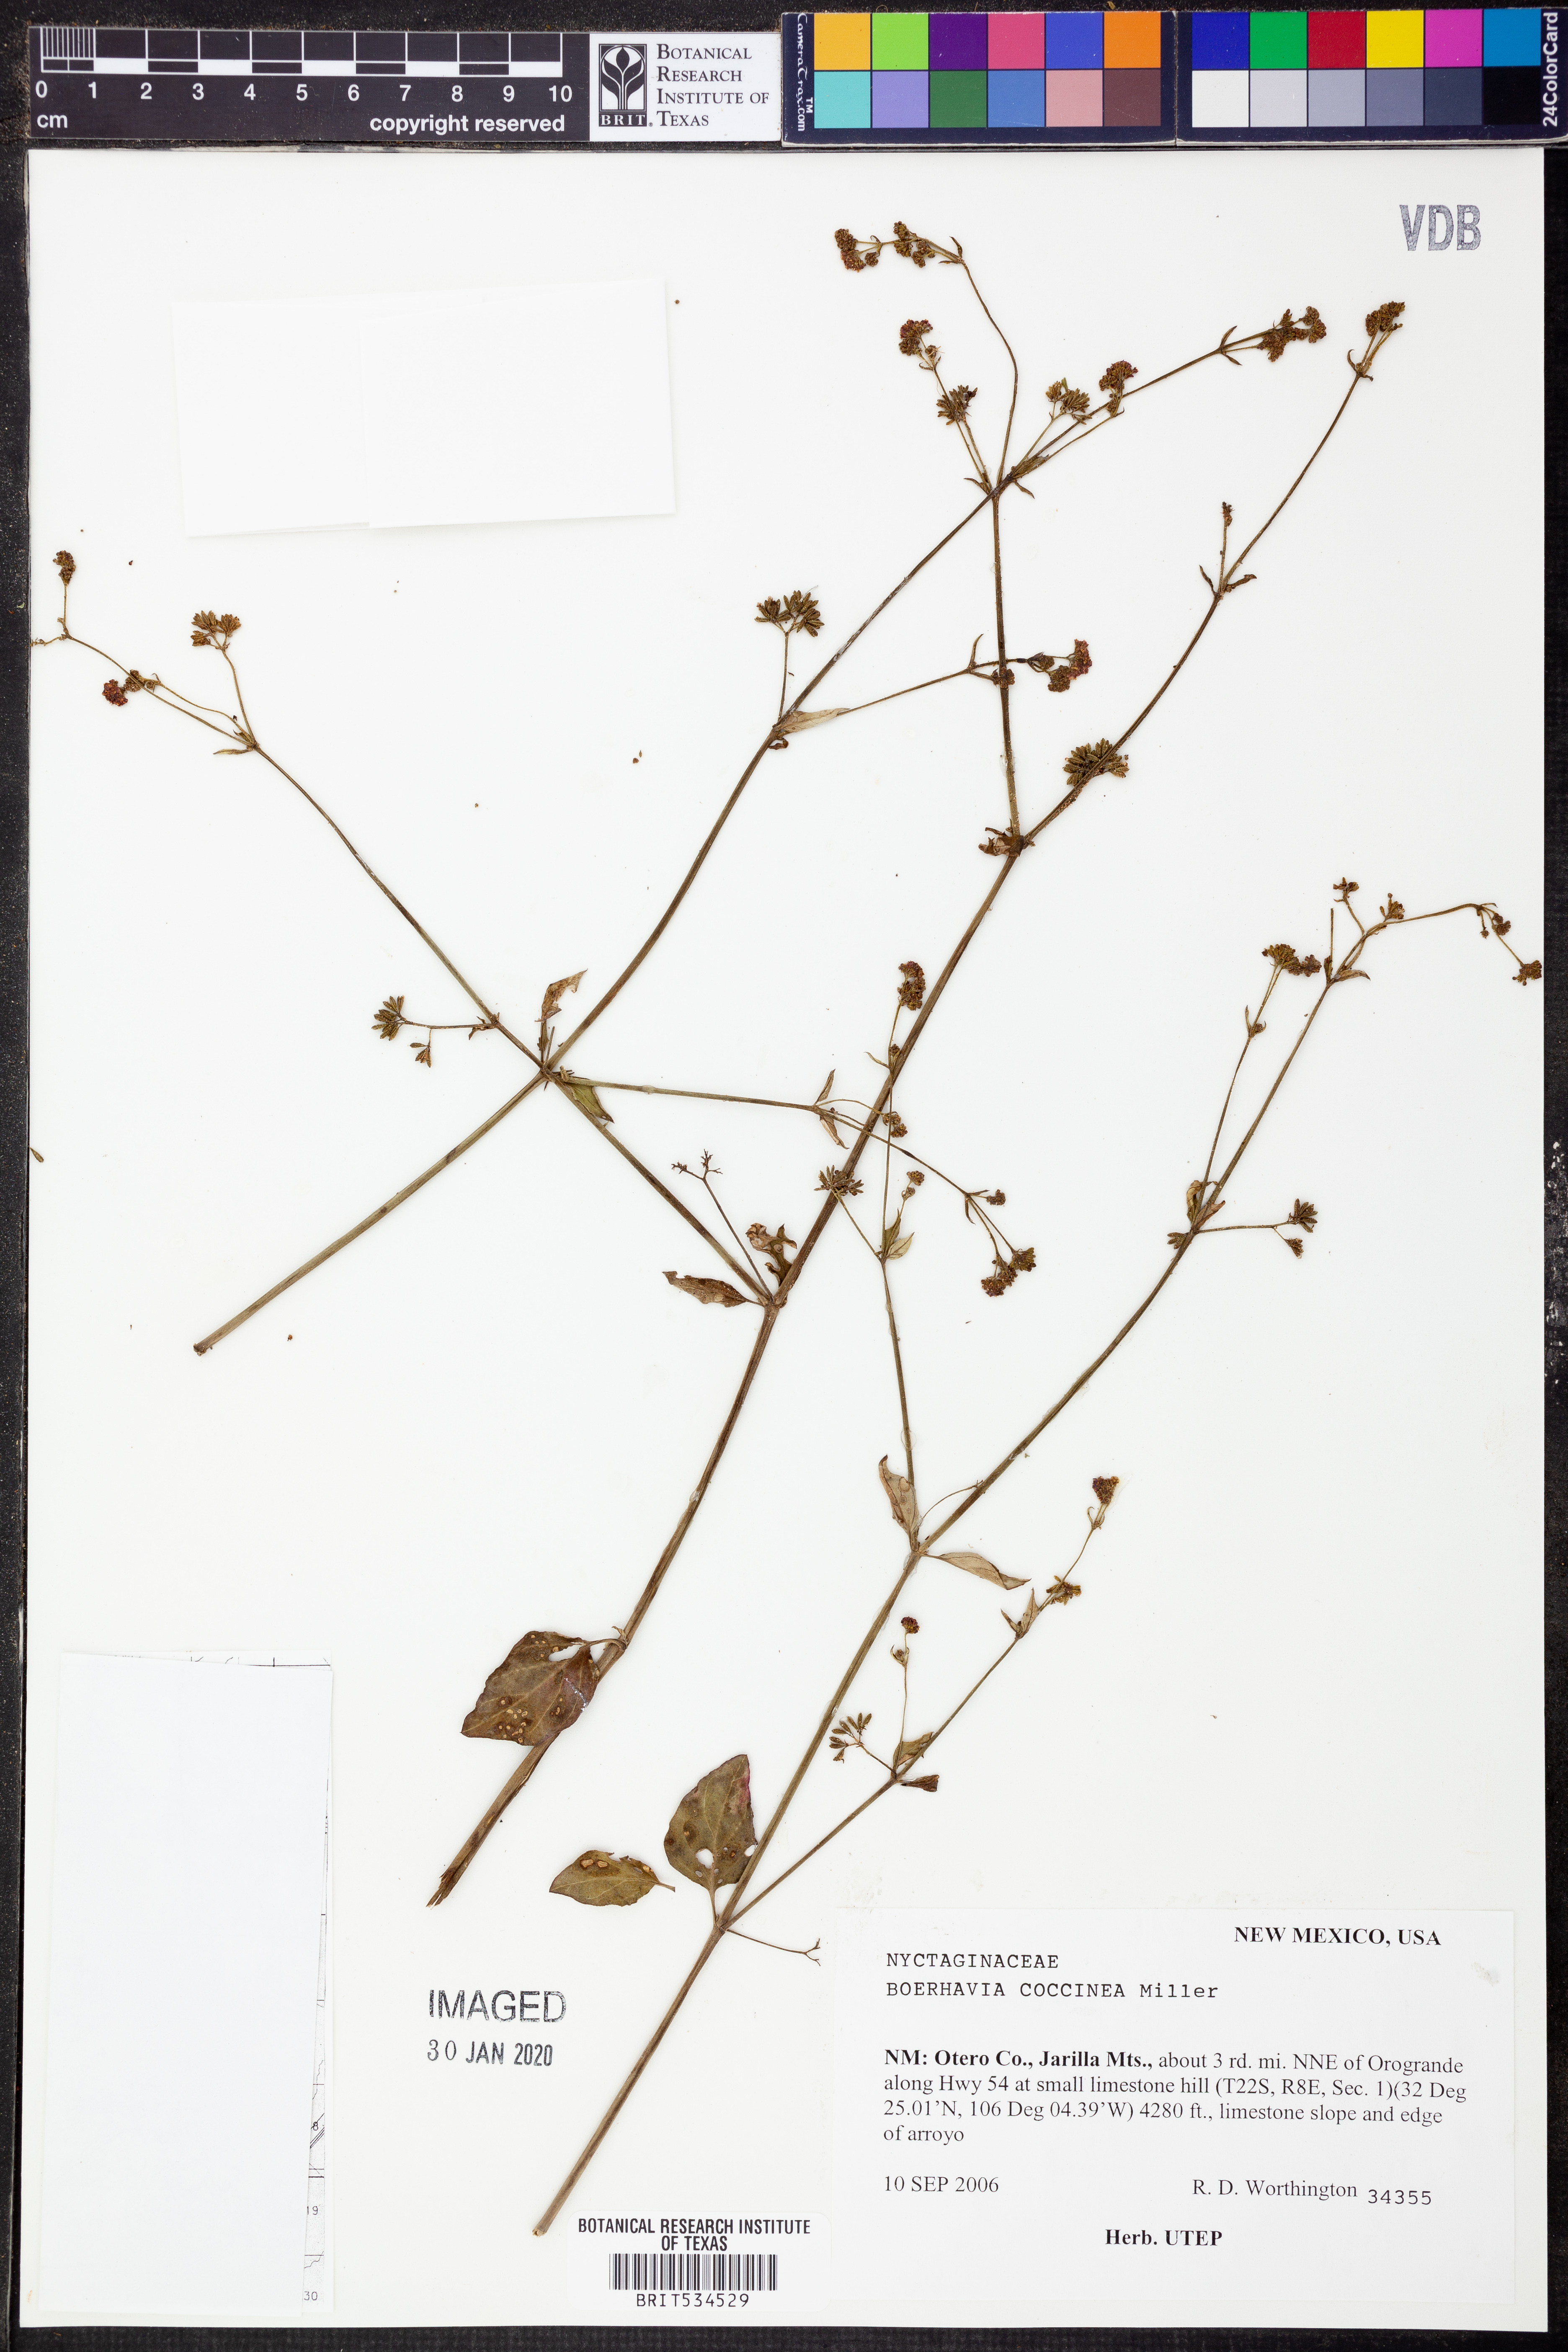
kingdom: Plantae
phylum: Tracheophyta
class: Magnoliopsida
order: Caryophyllales
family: Nyctaginaceae
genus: Boerhavia
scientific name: Boerhavia coccinea
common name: Scarlet spiderling
